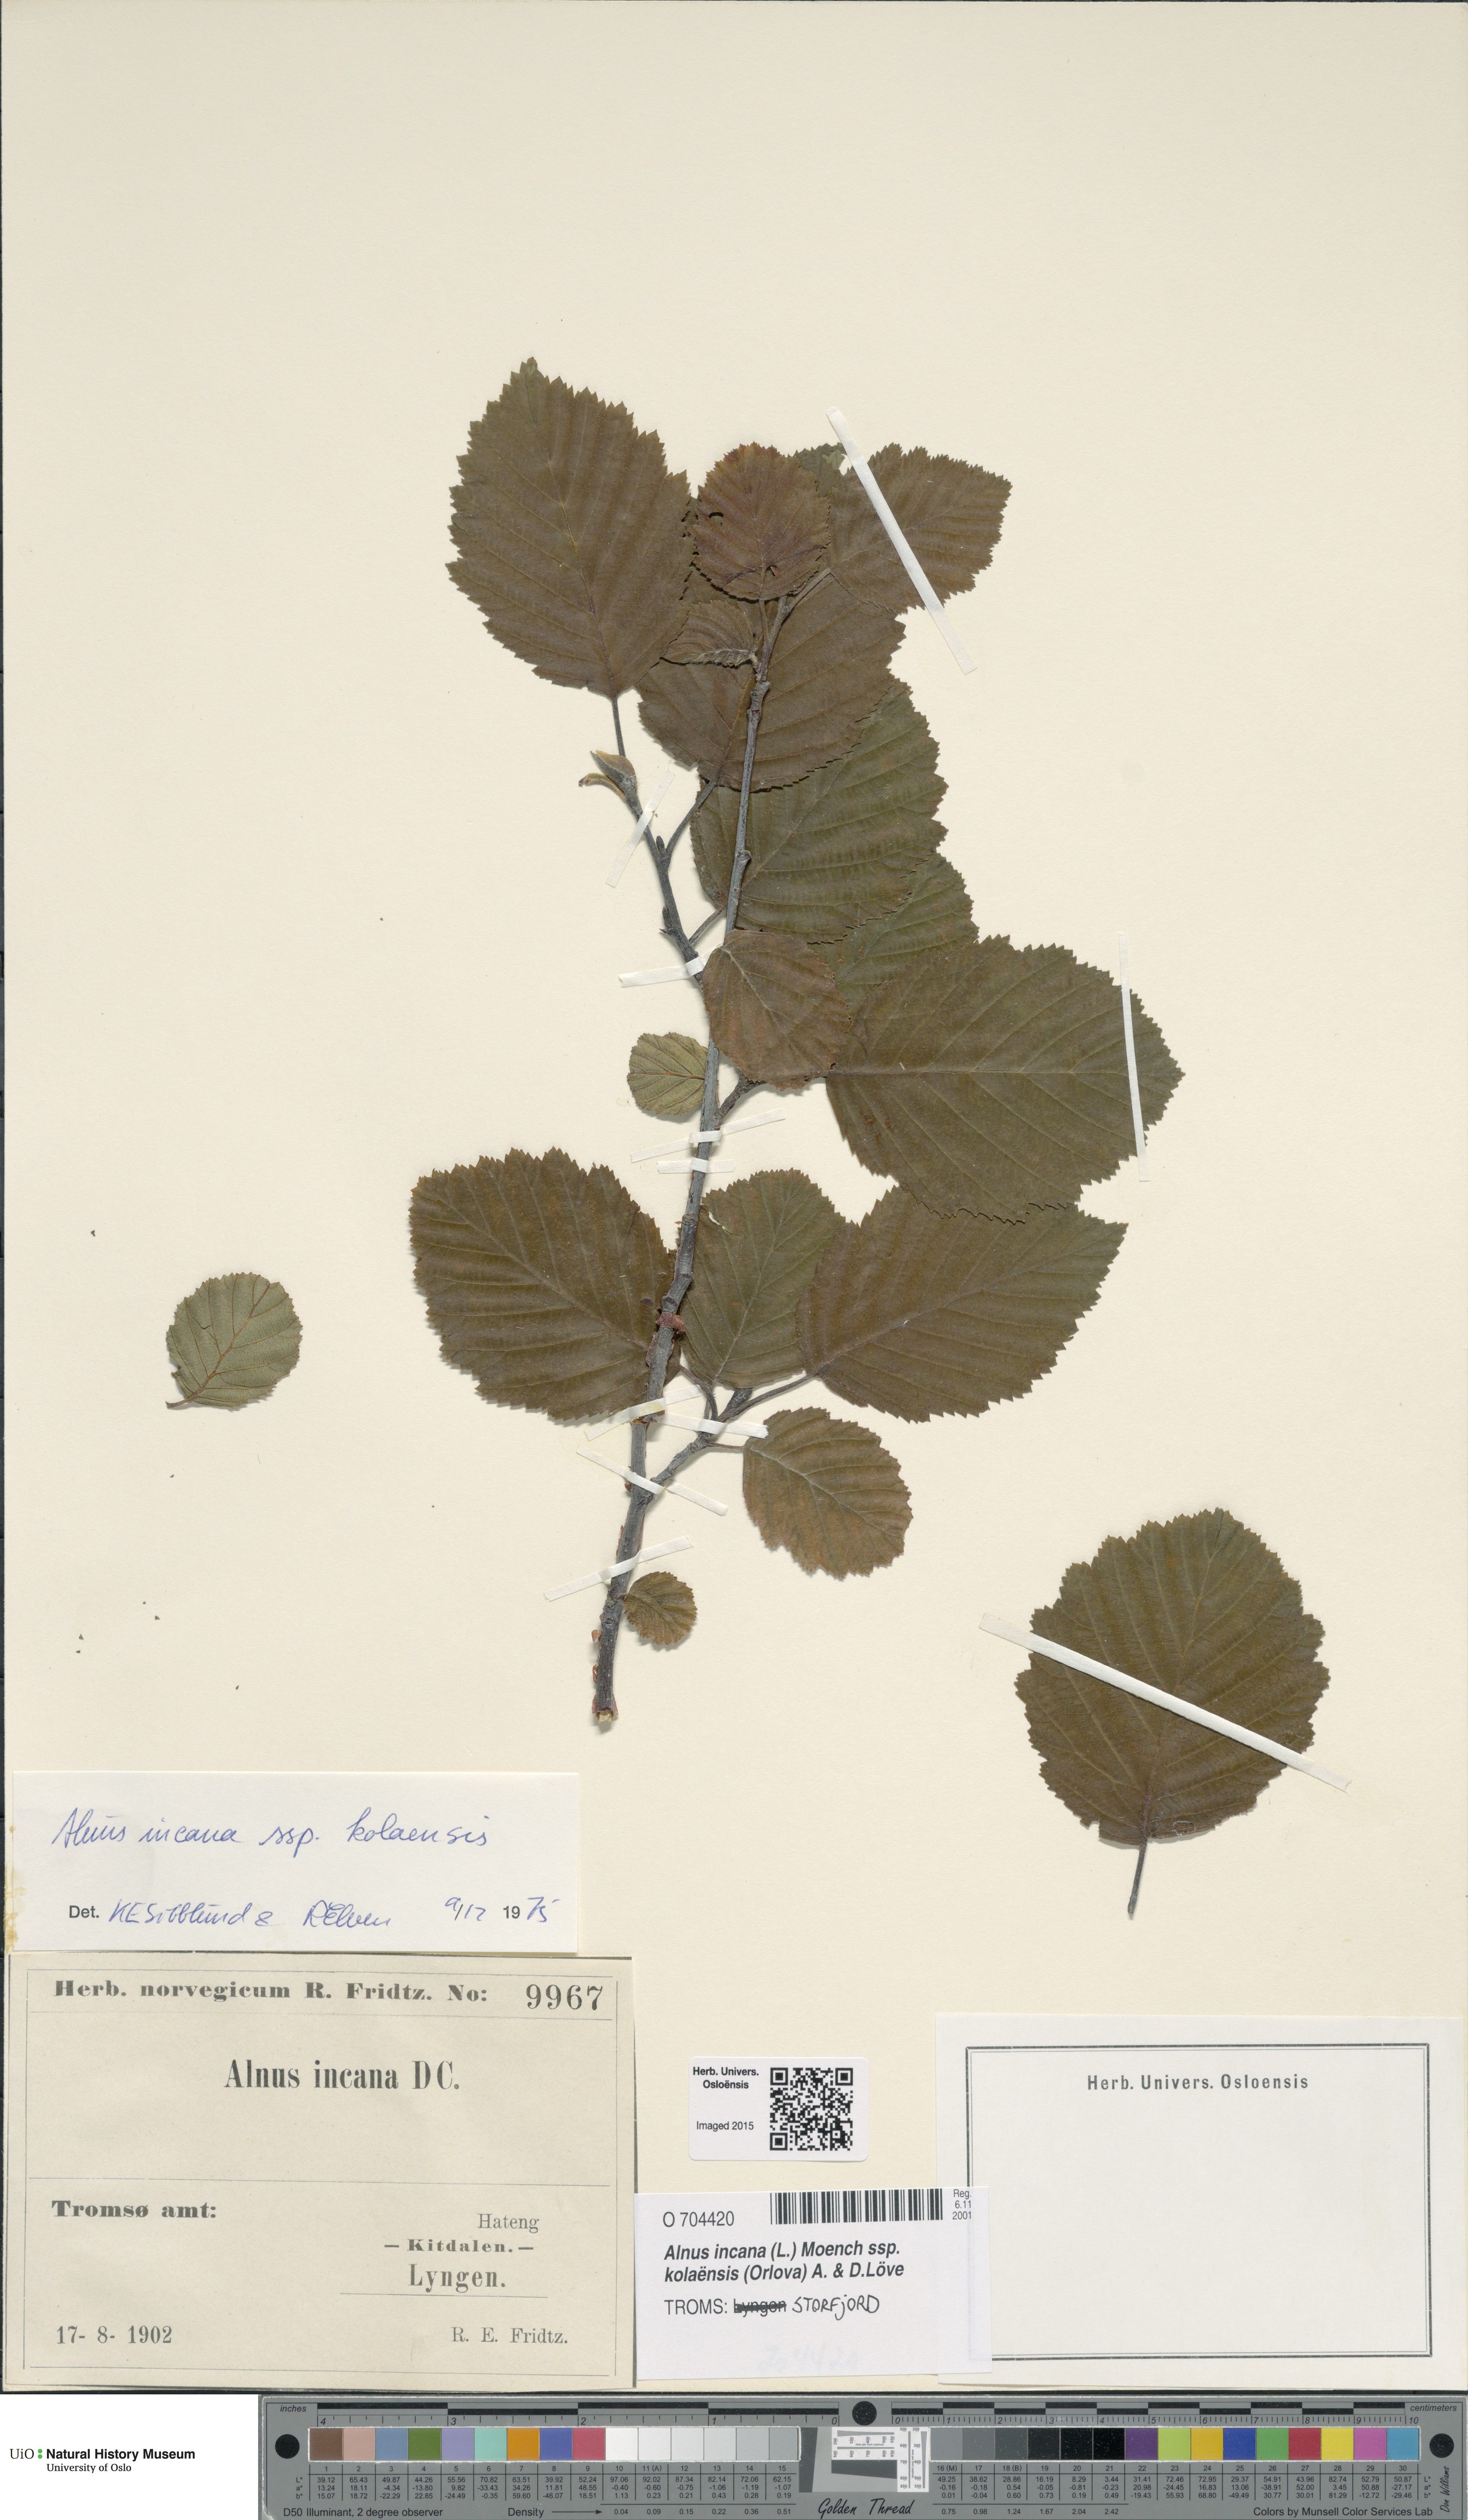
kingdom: Plantae
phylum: Tracheophyta
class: Magnoliopsida
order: Fagales
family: Betulaceae
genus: Alnus
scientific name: Alnus incana
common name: Grey alder
